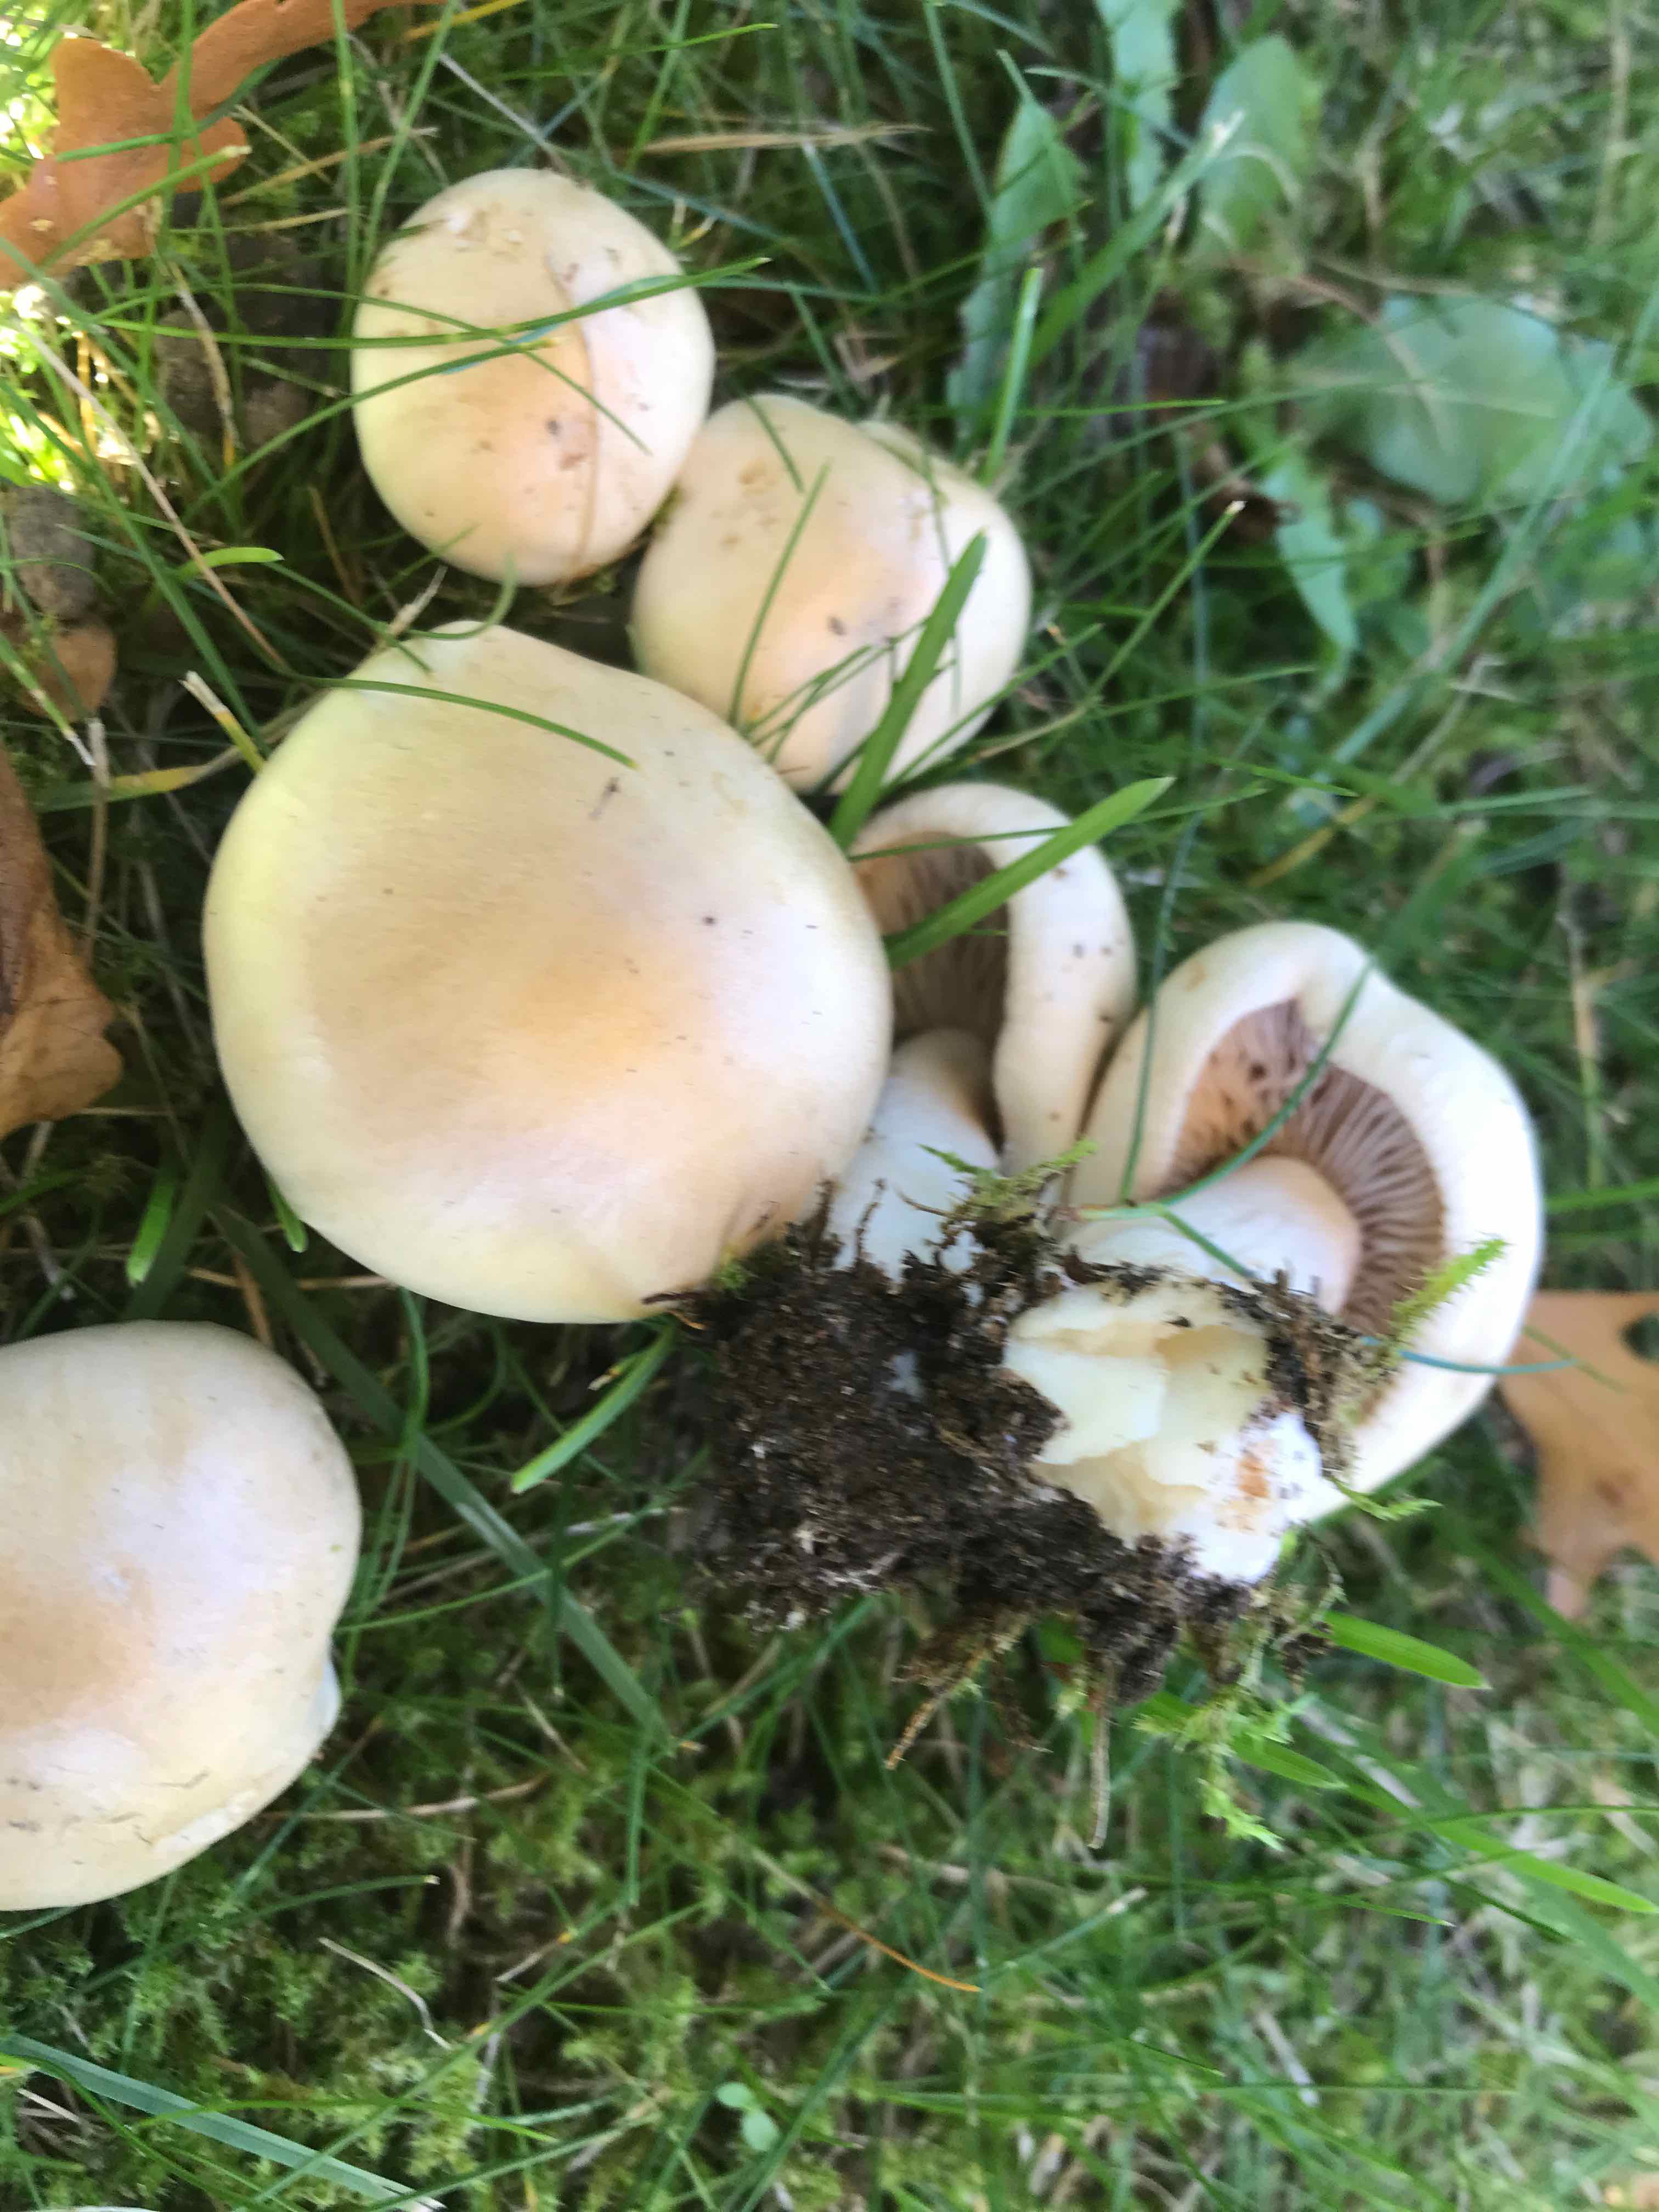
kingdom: Fungi
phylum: Basidiomycota
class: Agaricomycetes
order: Agaricales
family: Hymenogastraceae
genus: Hebeloma
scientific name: Hebeloma crustuliniforme
